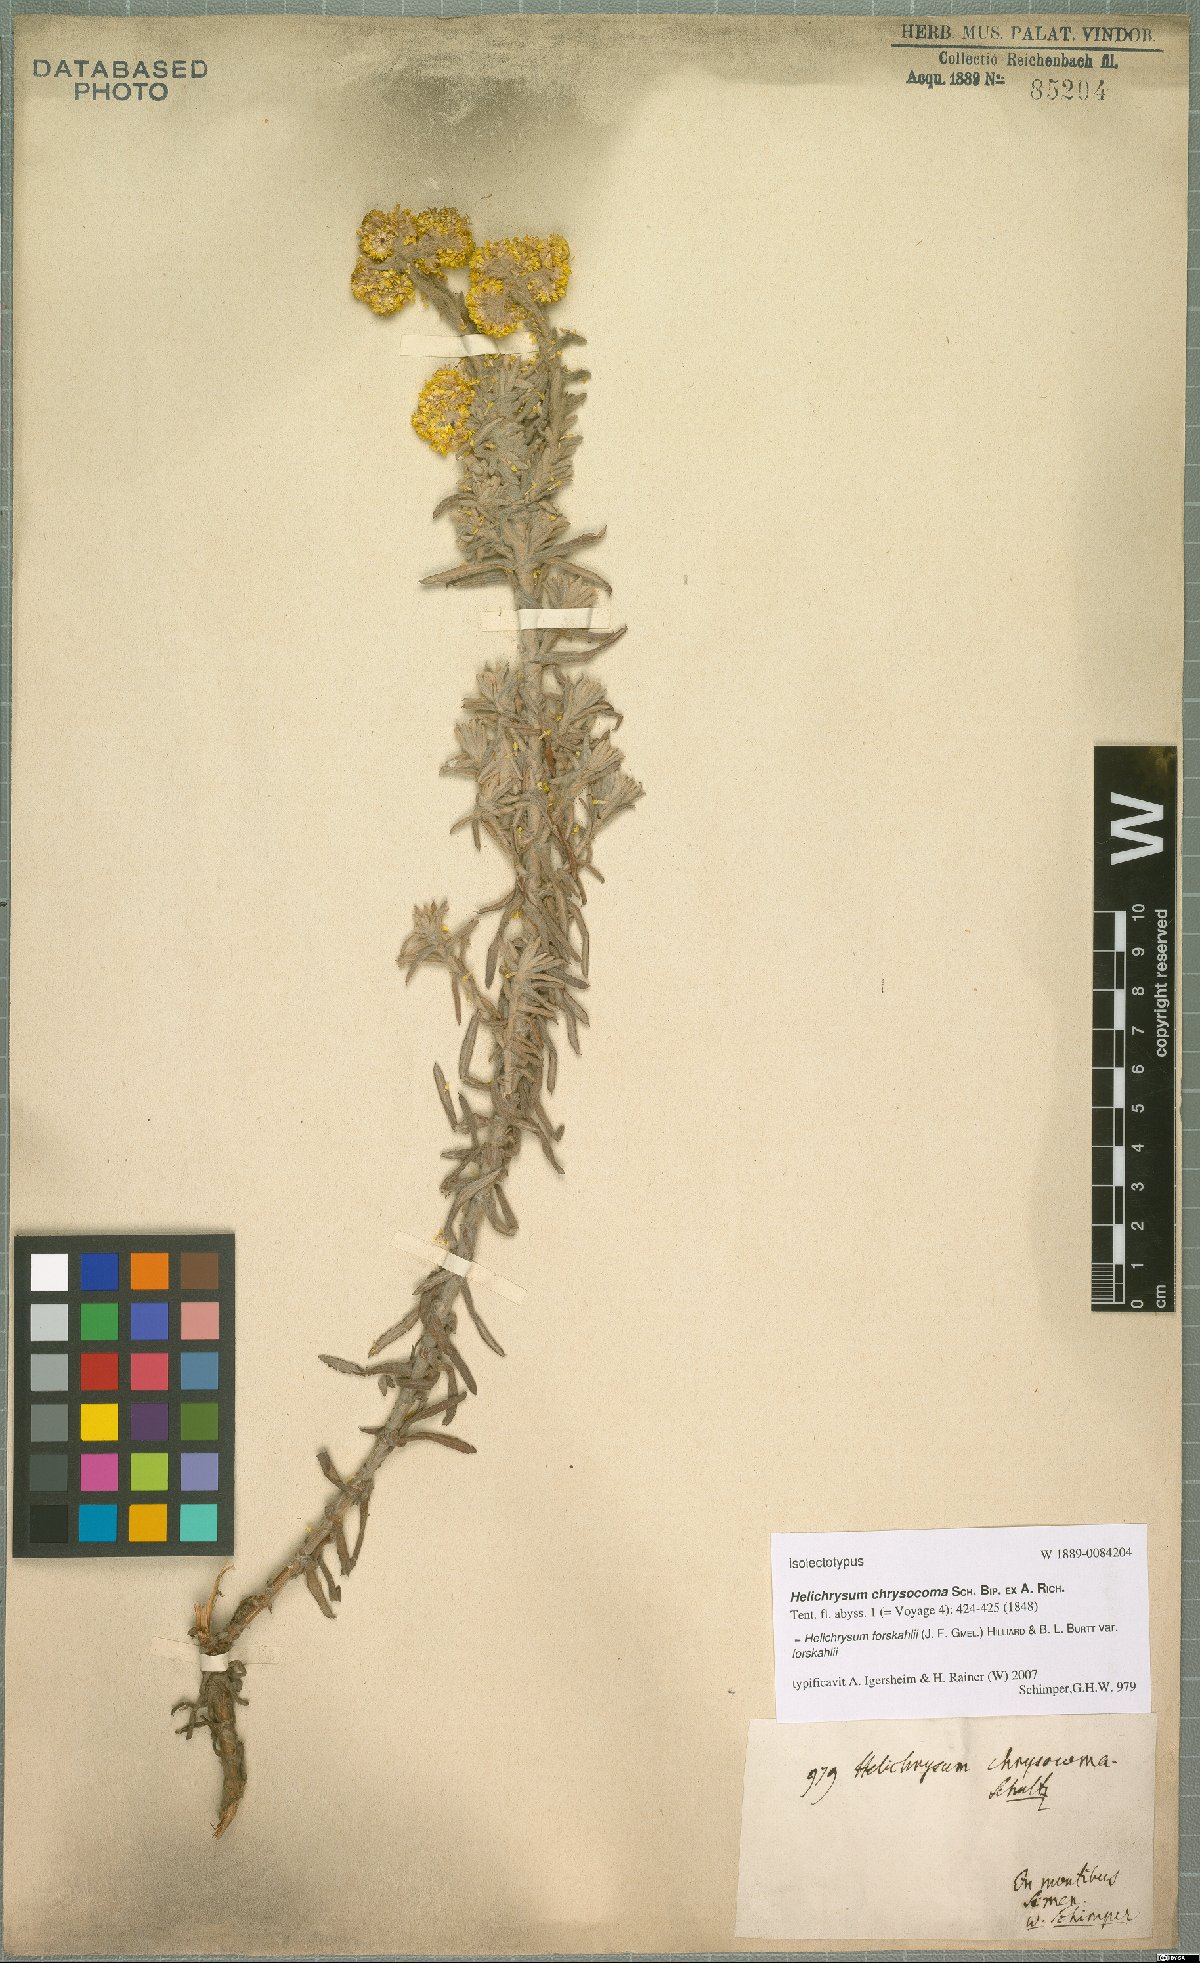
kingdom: Plantae
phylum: Tracheophyta
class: Magnoliopsida
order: Asterales
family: Asteraceae
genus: Helichrysum
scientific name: Helichrysum forskahlii
